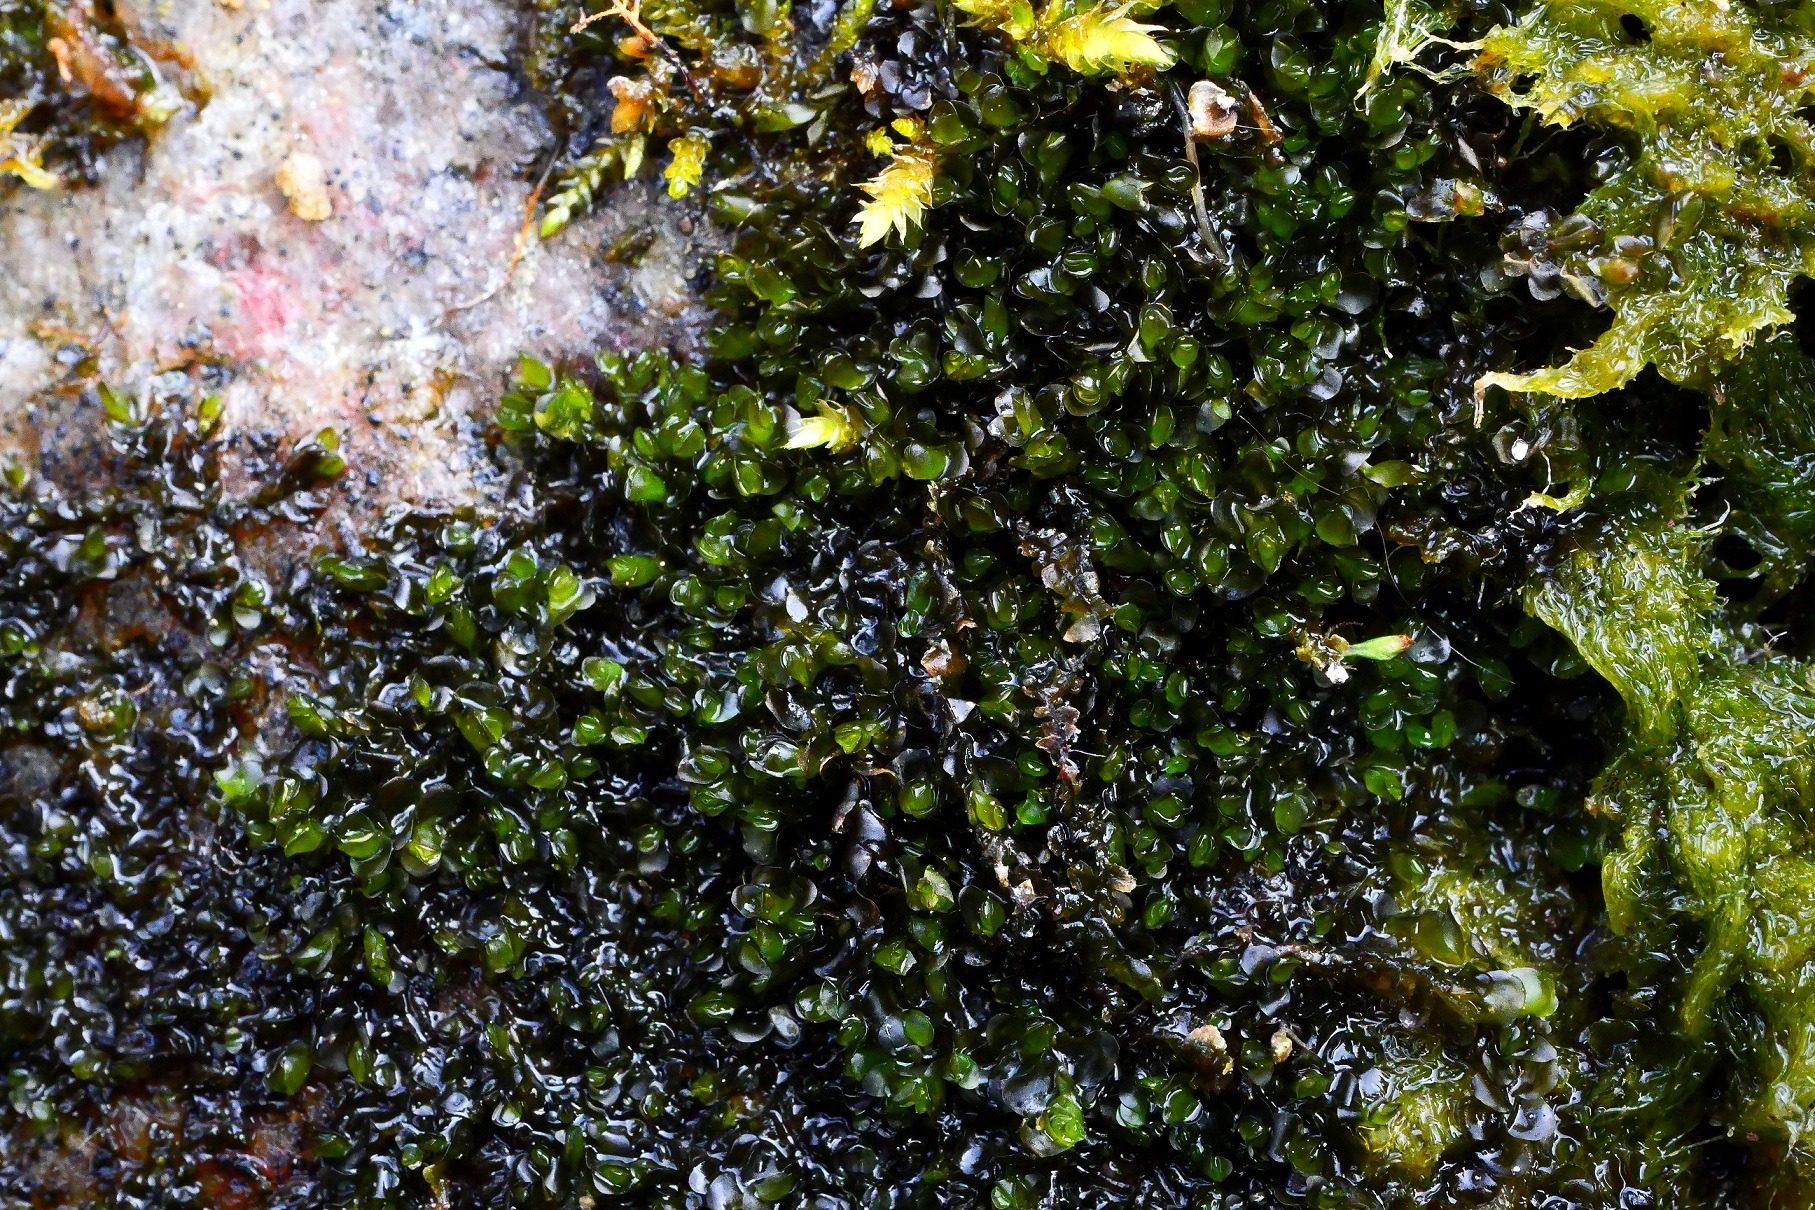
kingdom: Plantae
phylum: Marchantiophyta
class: Jungermanniopsida
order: Jungermanniales
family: Jungermanniaceae
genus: Jungermannia
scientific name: Jungermannia atrovirens
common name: Sortgrøn rørmund
